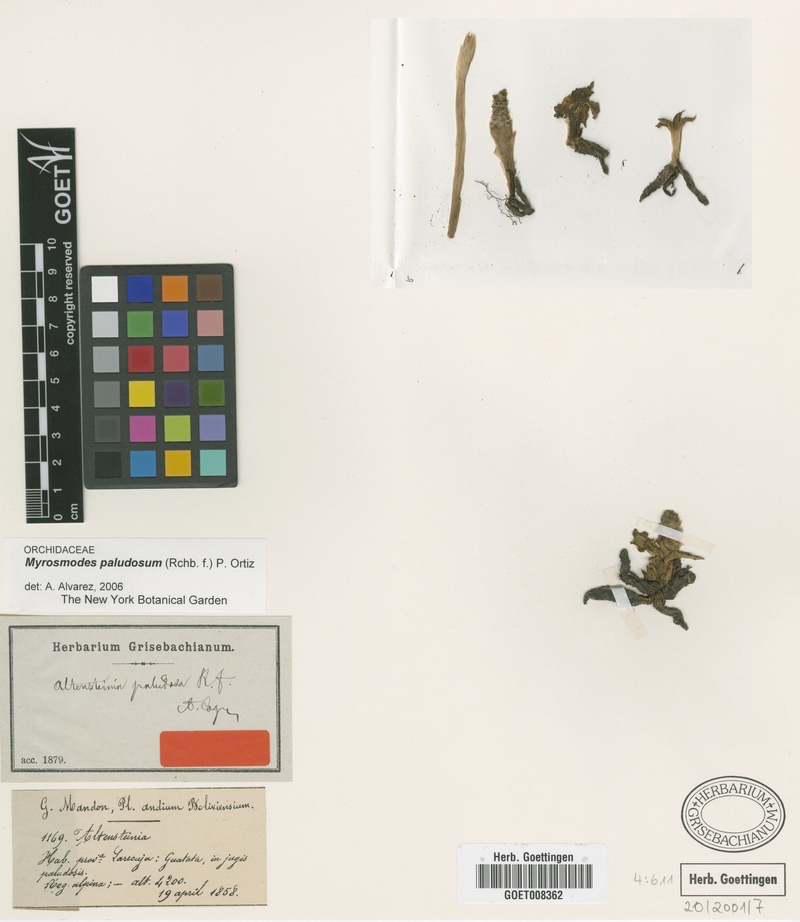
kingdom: Plantae
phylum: Tracheophyta
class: Liliopsida
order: Asparagales
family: Orchidaceae
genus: Myrosmodes
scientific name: Myrosmodes paludosa
